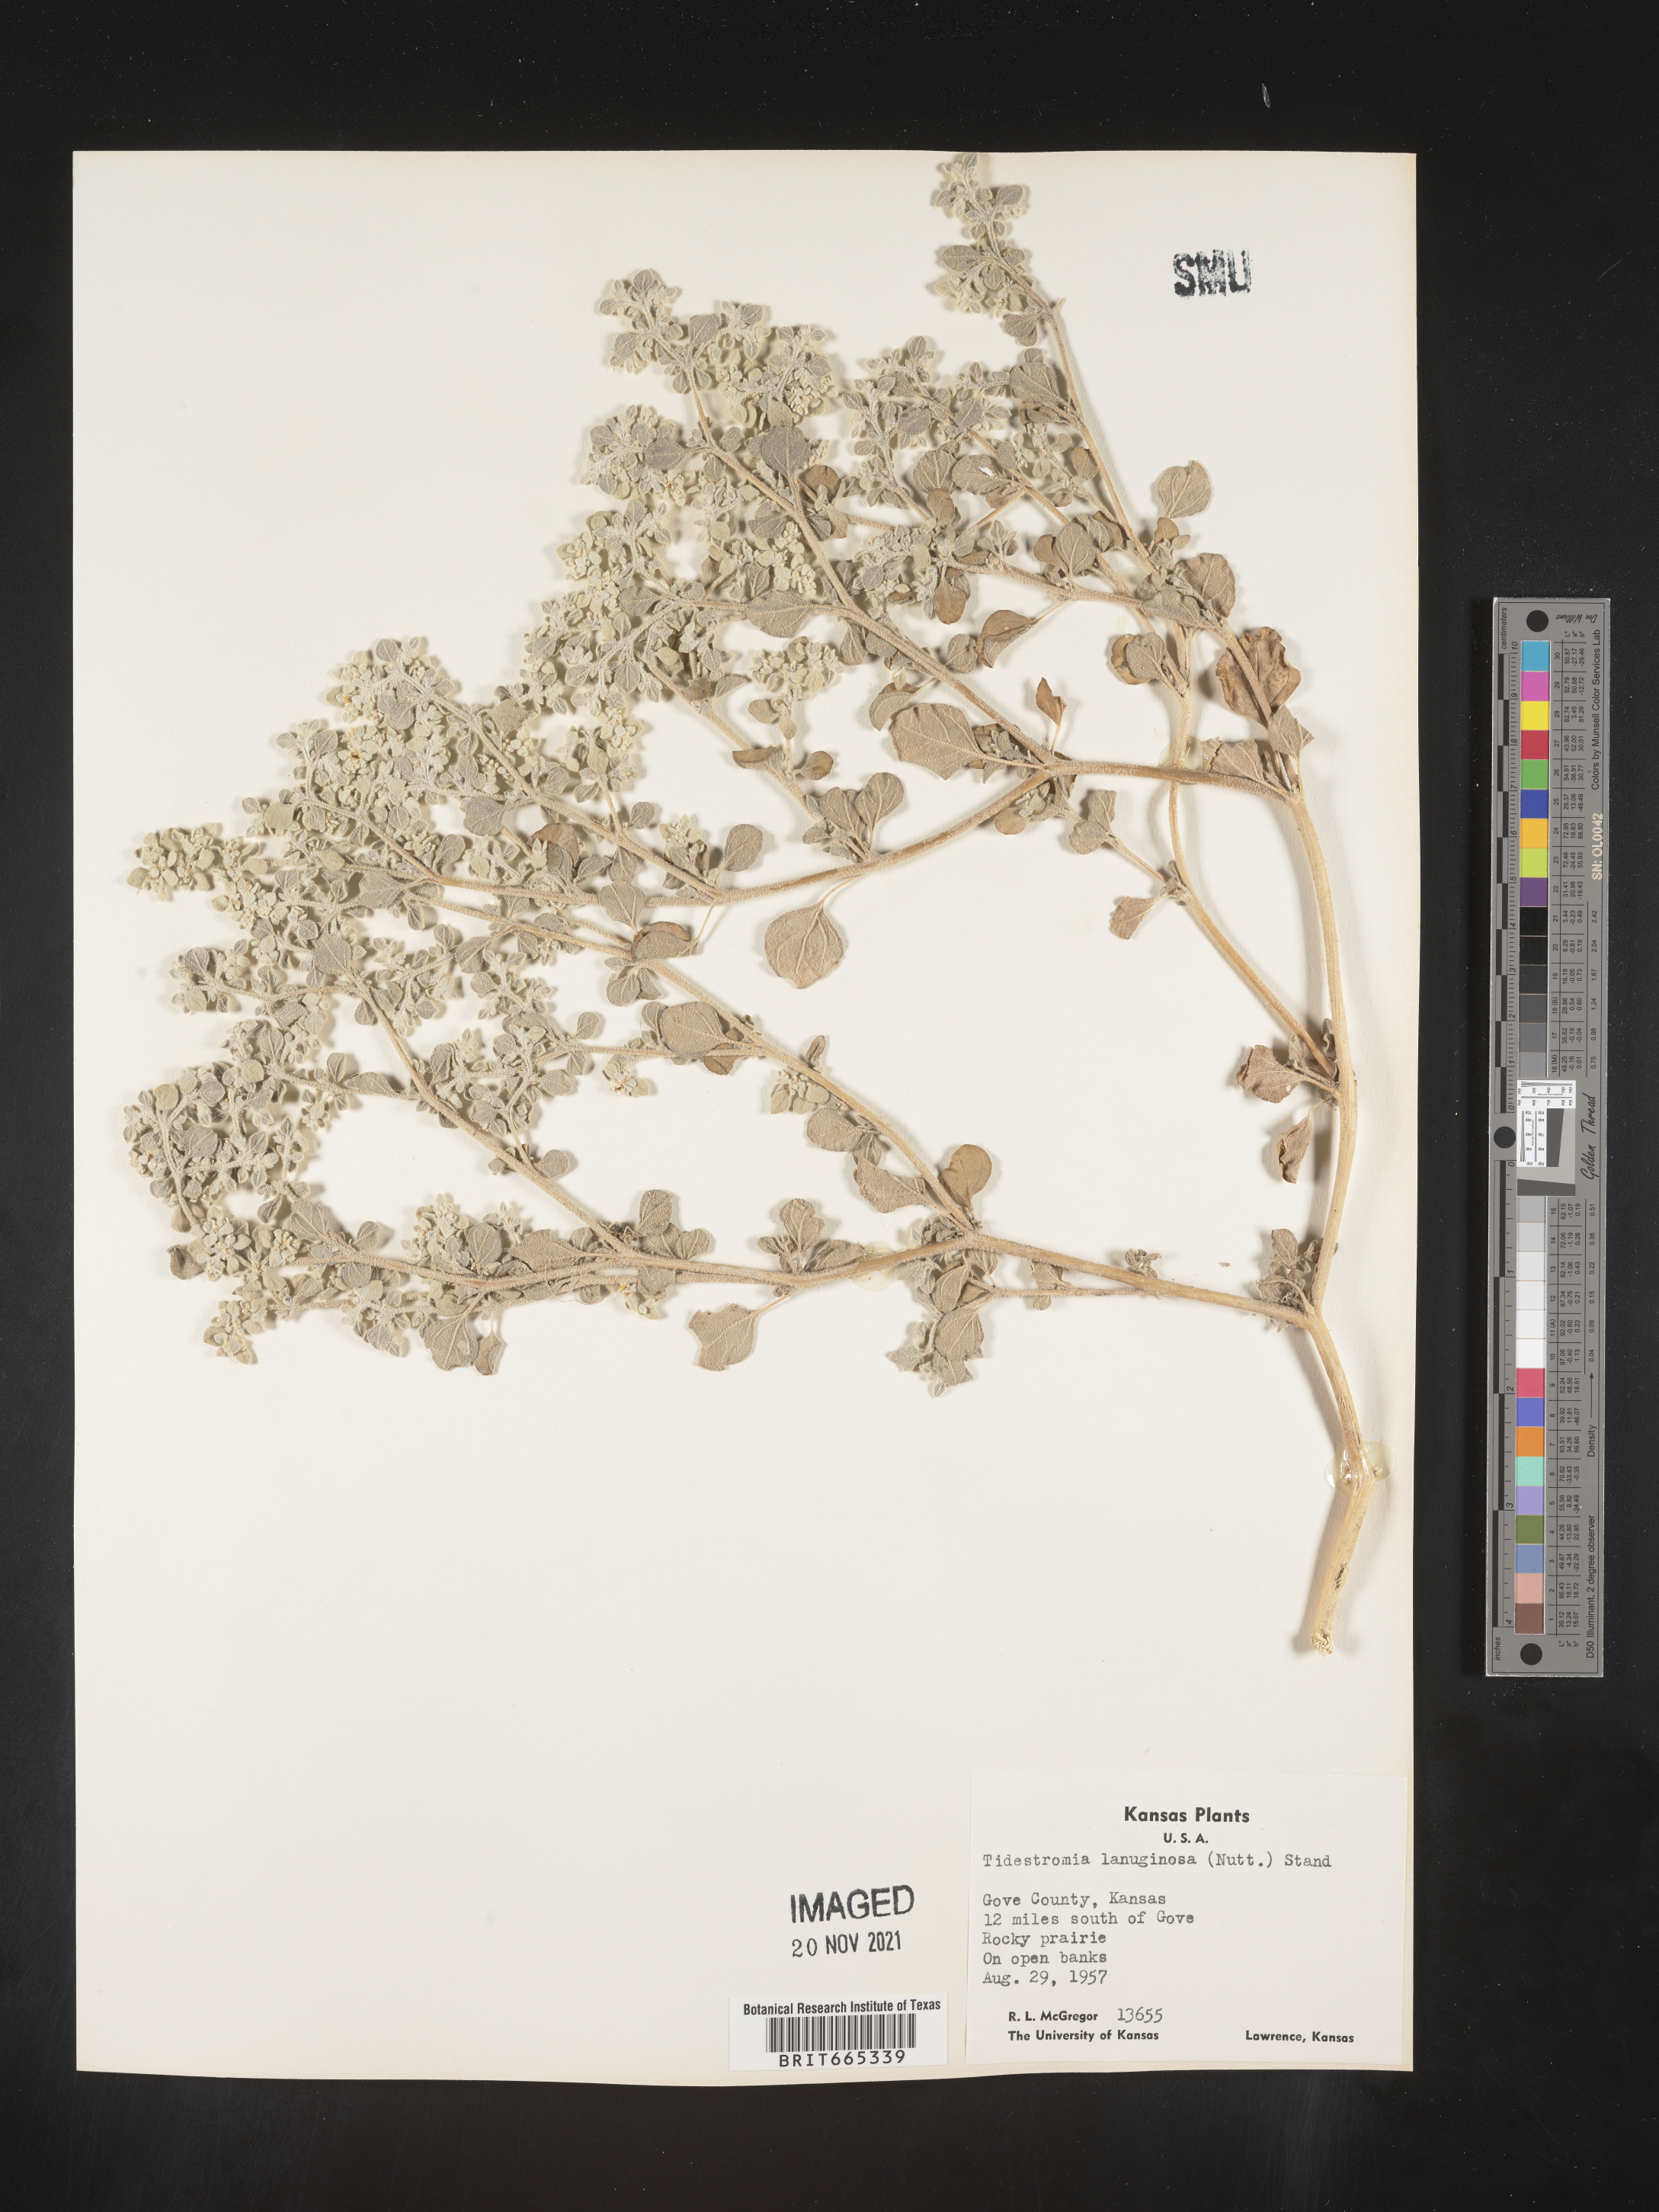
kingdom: Plantae
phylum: Tracheophyta
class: Magnoliopsida
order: Caryophyllales
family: Amaranthaceae
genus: Tidestromia
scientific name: Tidestromia lanuginosa
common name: Woolly tidestromia
